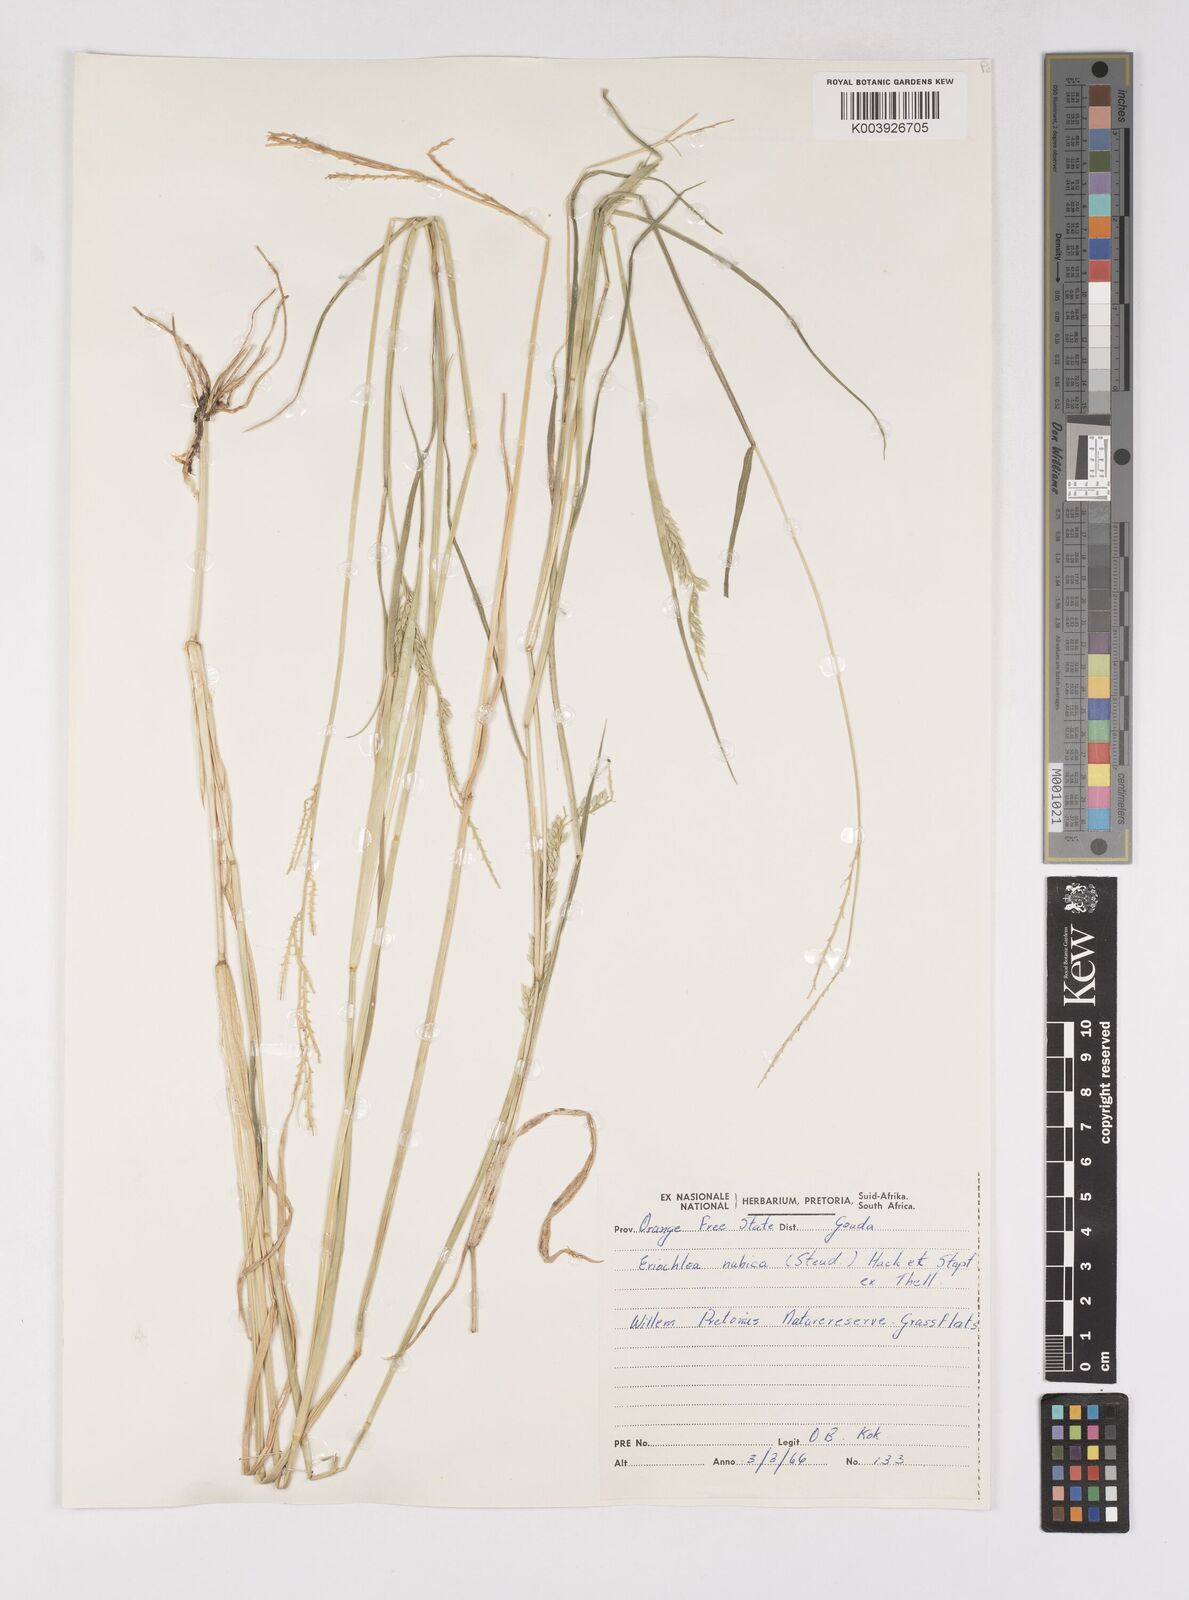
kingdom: Plantae
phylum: Tracheophyta
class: Liliopsida
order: Poales
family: Poaceae
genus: Eriochloa
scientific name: Eriochloa barbatus
